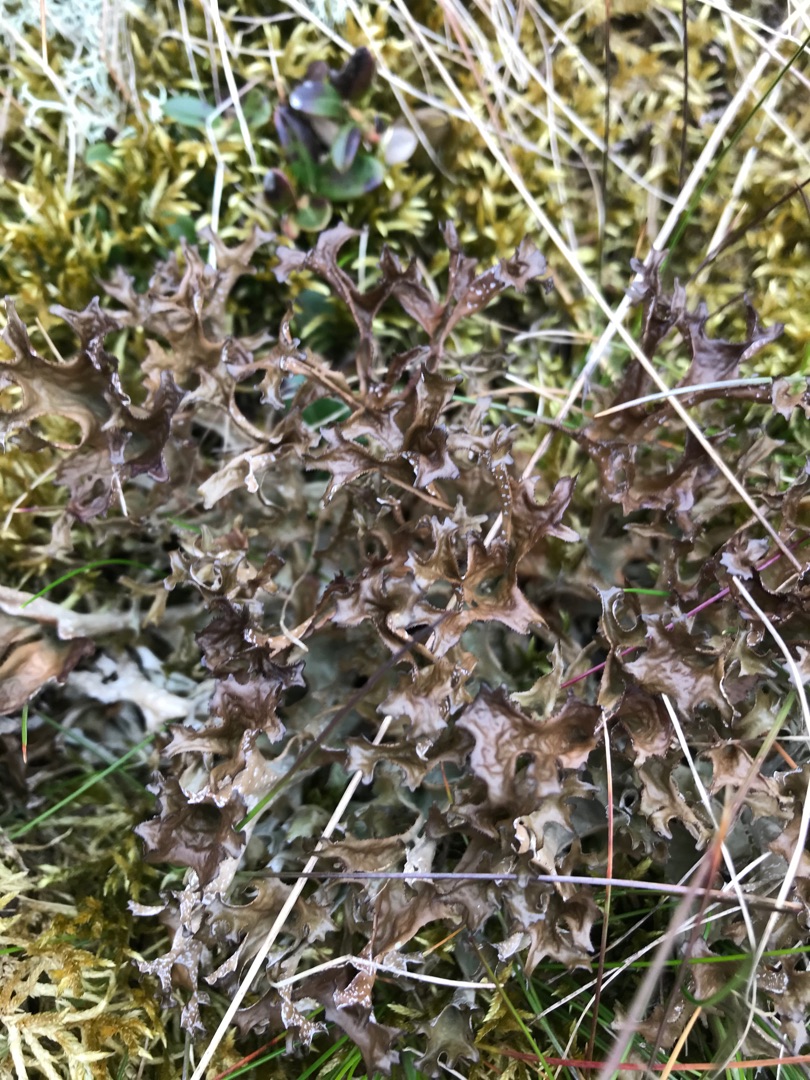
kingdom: Fungi
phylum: Ascomycota
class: Lecanoromycetes
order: Lecanorales
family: Parmeliaceae
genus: Cetraria
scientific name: Cetraria islandica
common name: Islandsk kruslav
